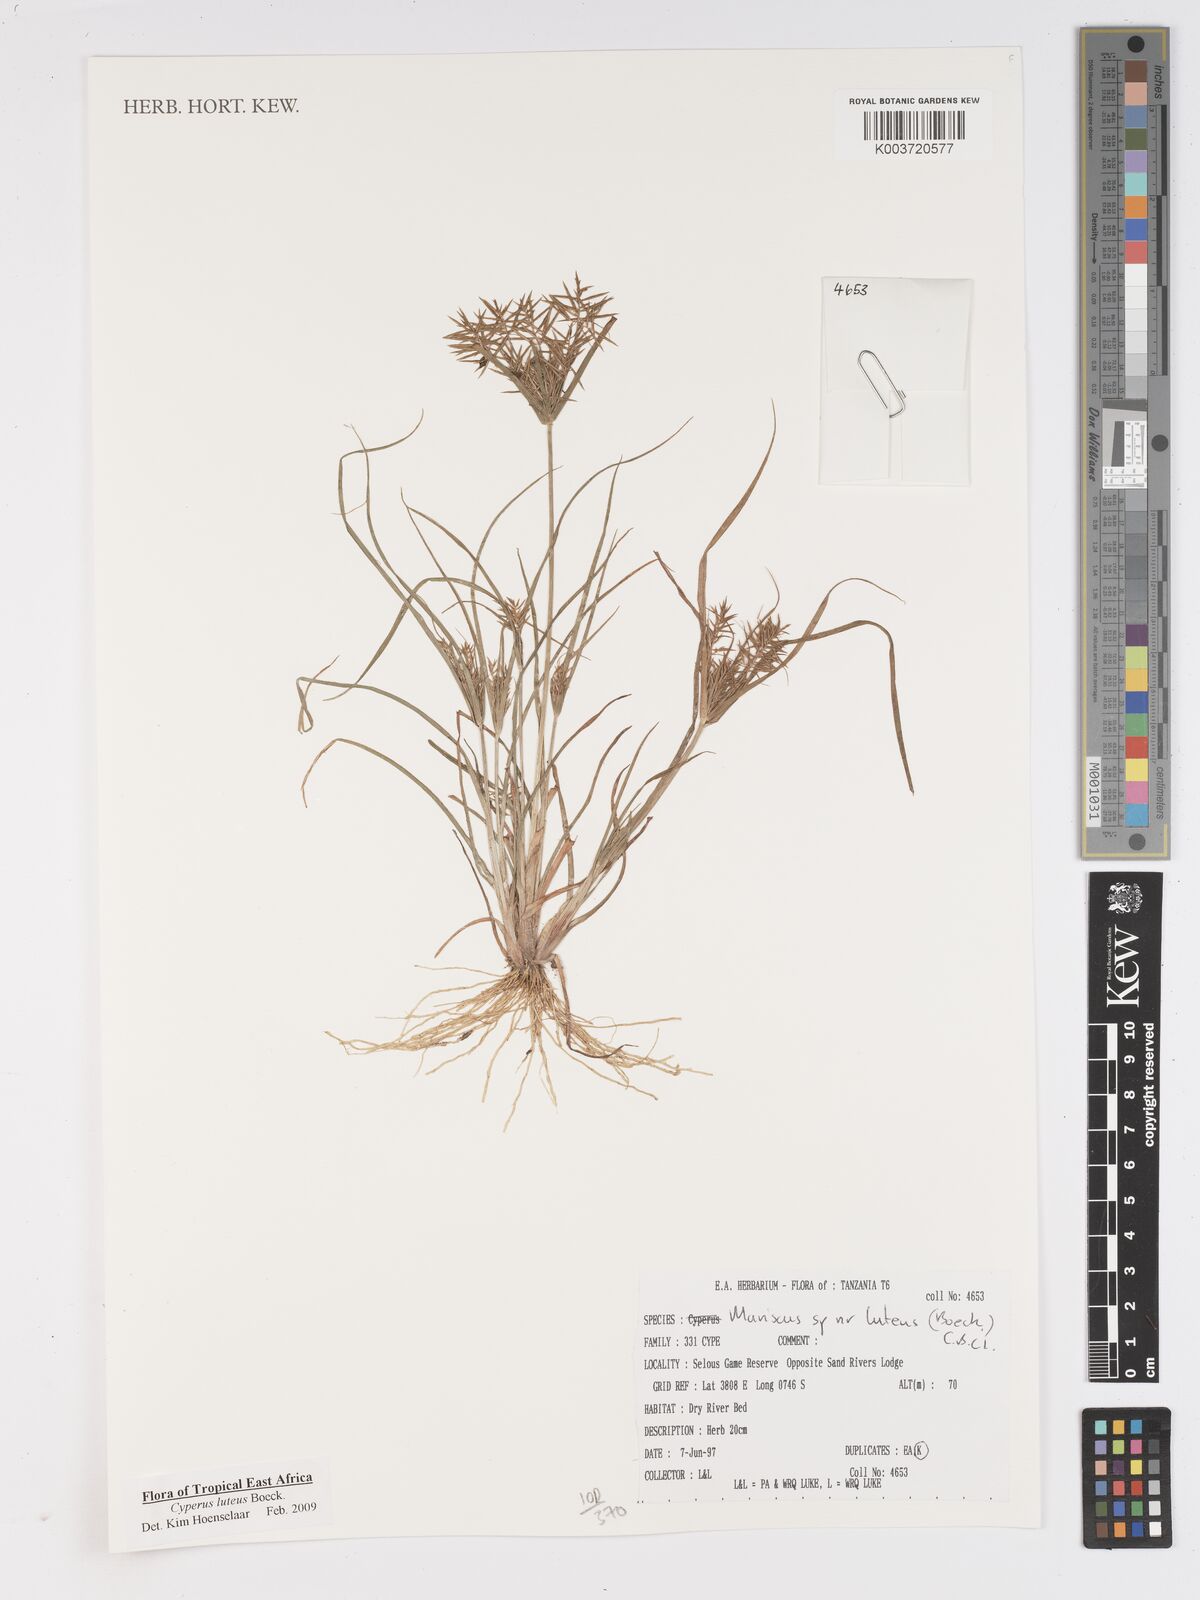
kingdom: Plantae
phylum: Tracheophyta
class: Liliopsida
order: Poales
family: Cyperaceae
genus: Cyperus
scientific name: Cyperus luteus
